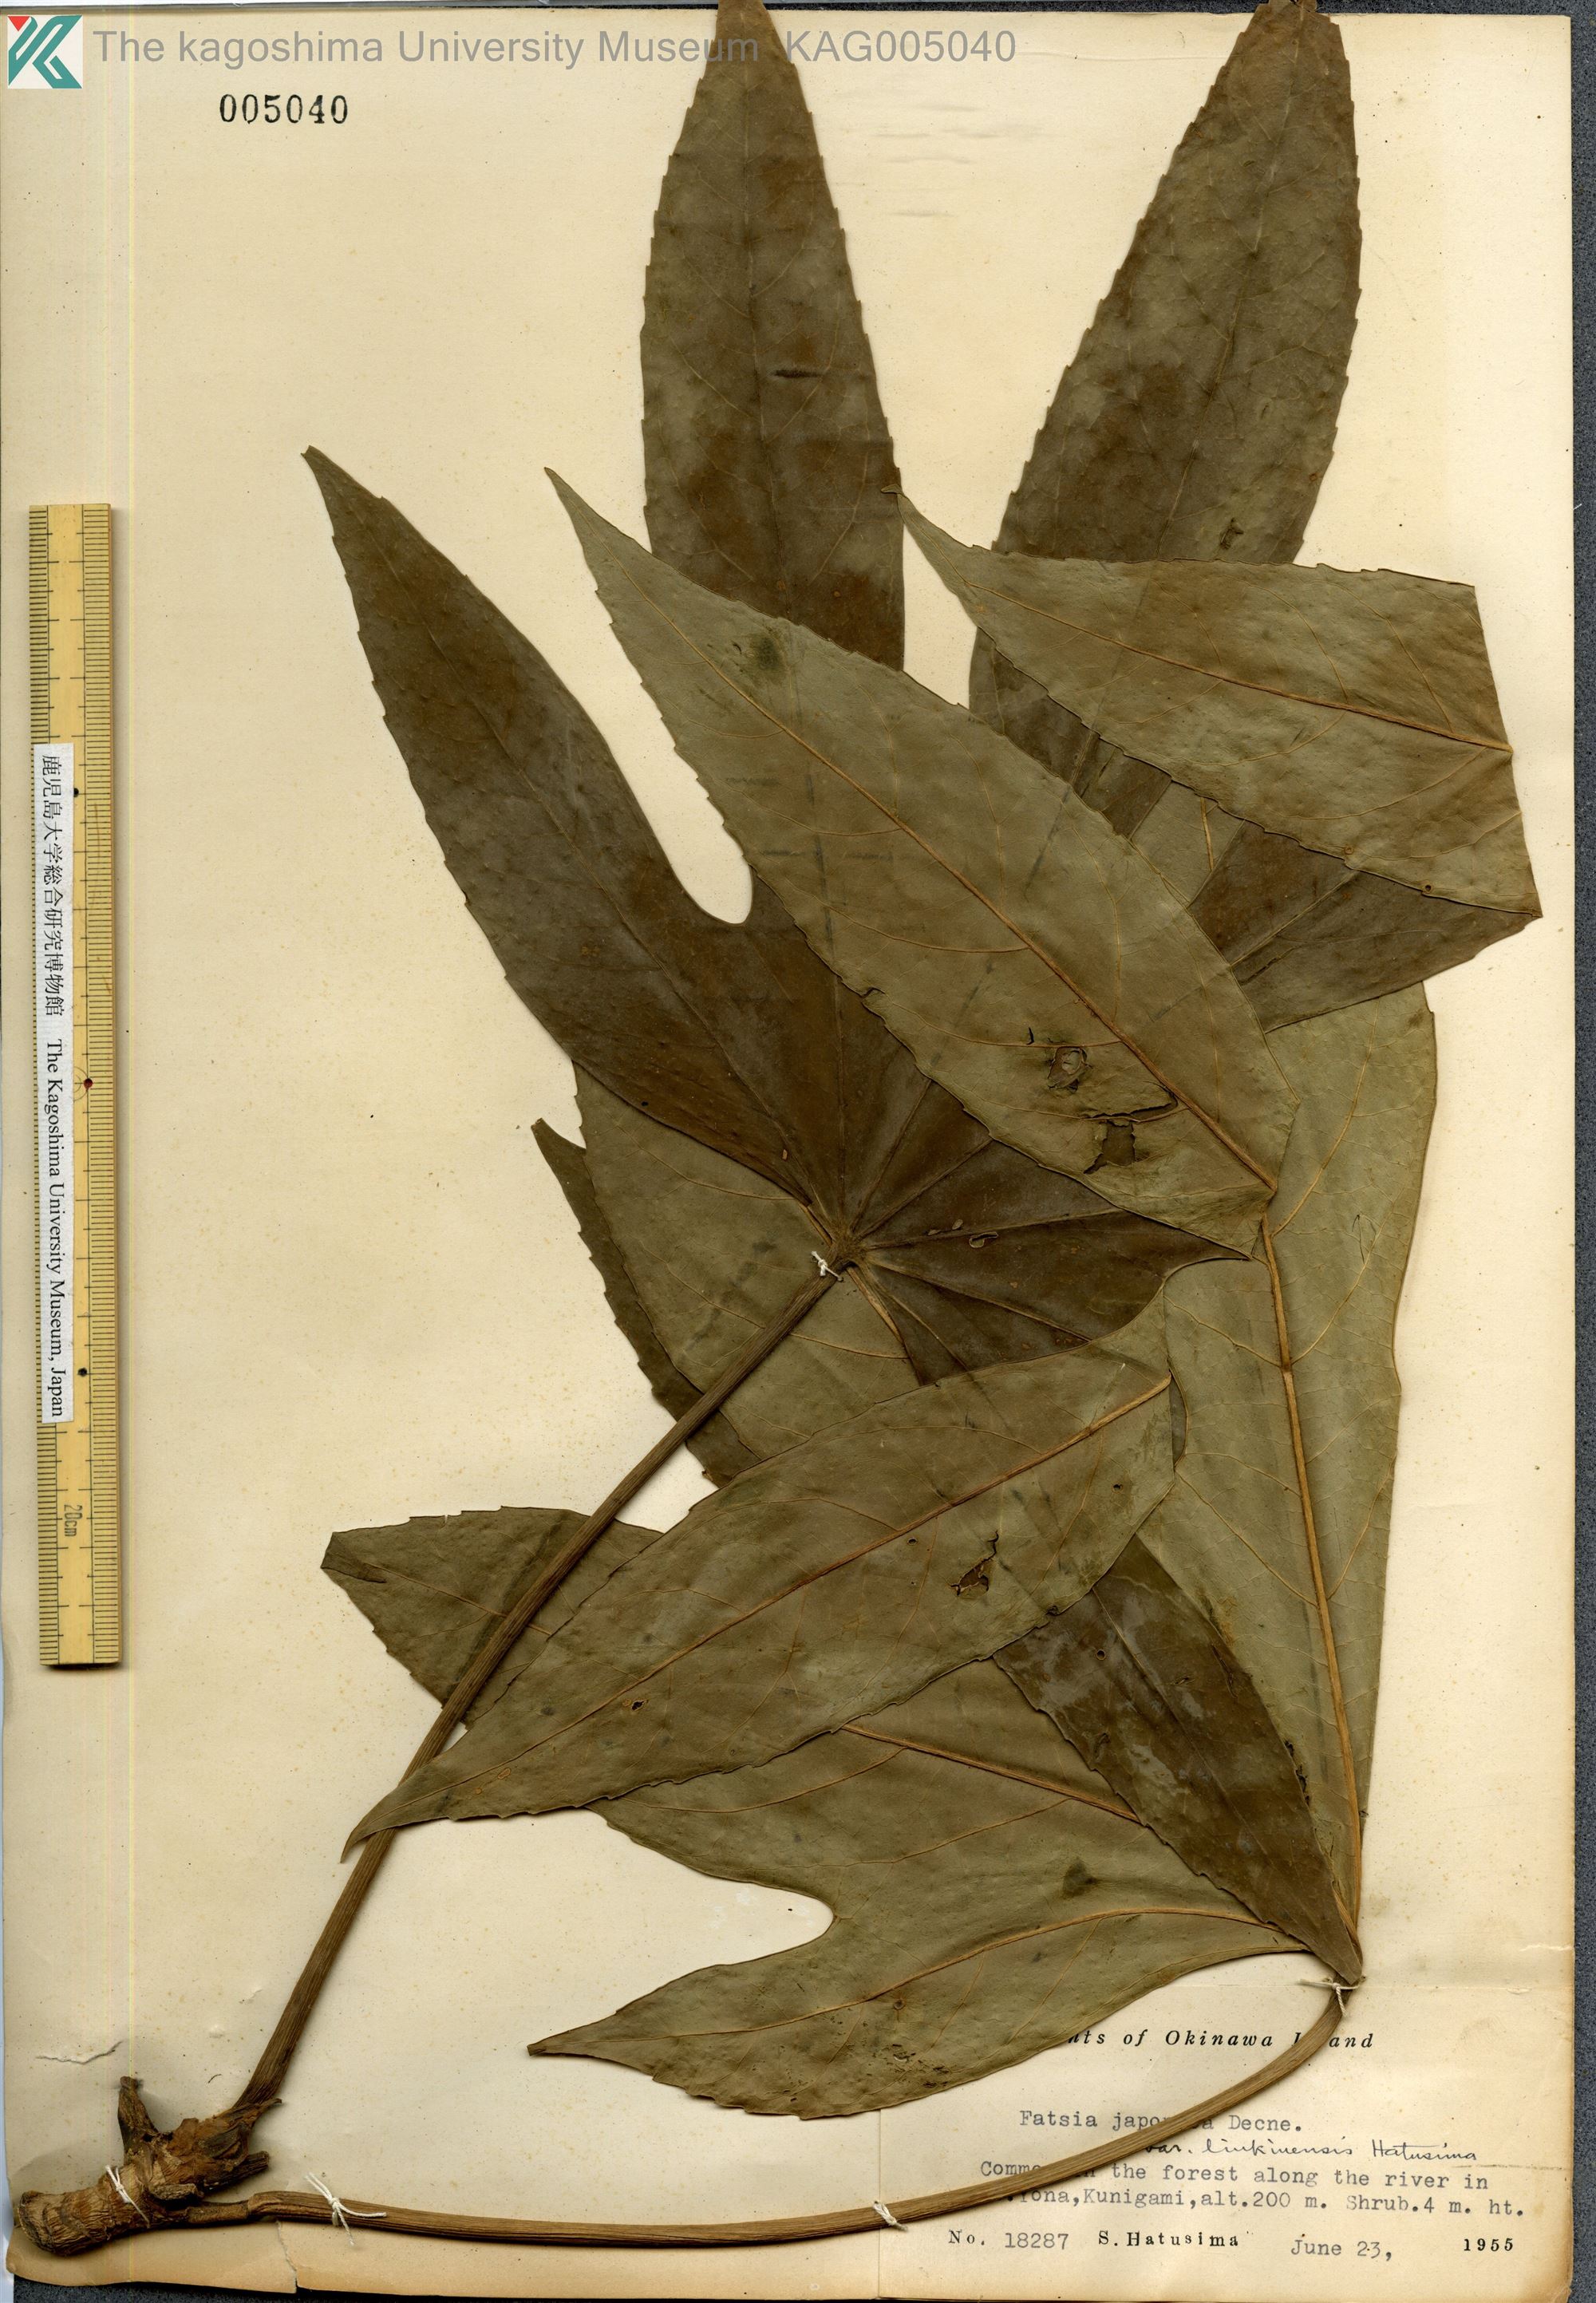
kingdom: Plantae
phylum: Tracheophyta
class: Magnoliopsida
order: Apiales
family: Araliaceae
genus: Fatsia
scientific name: Fatsia japonica
